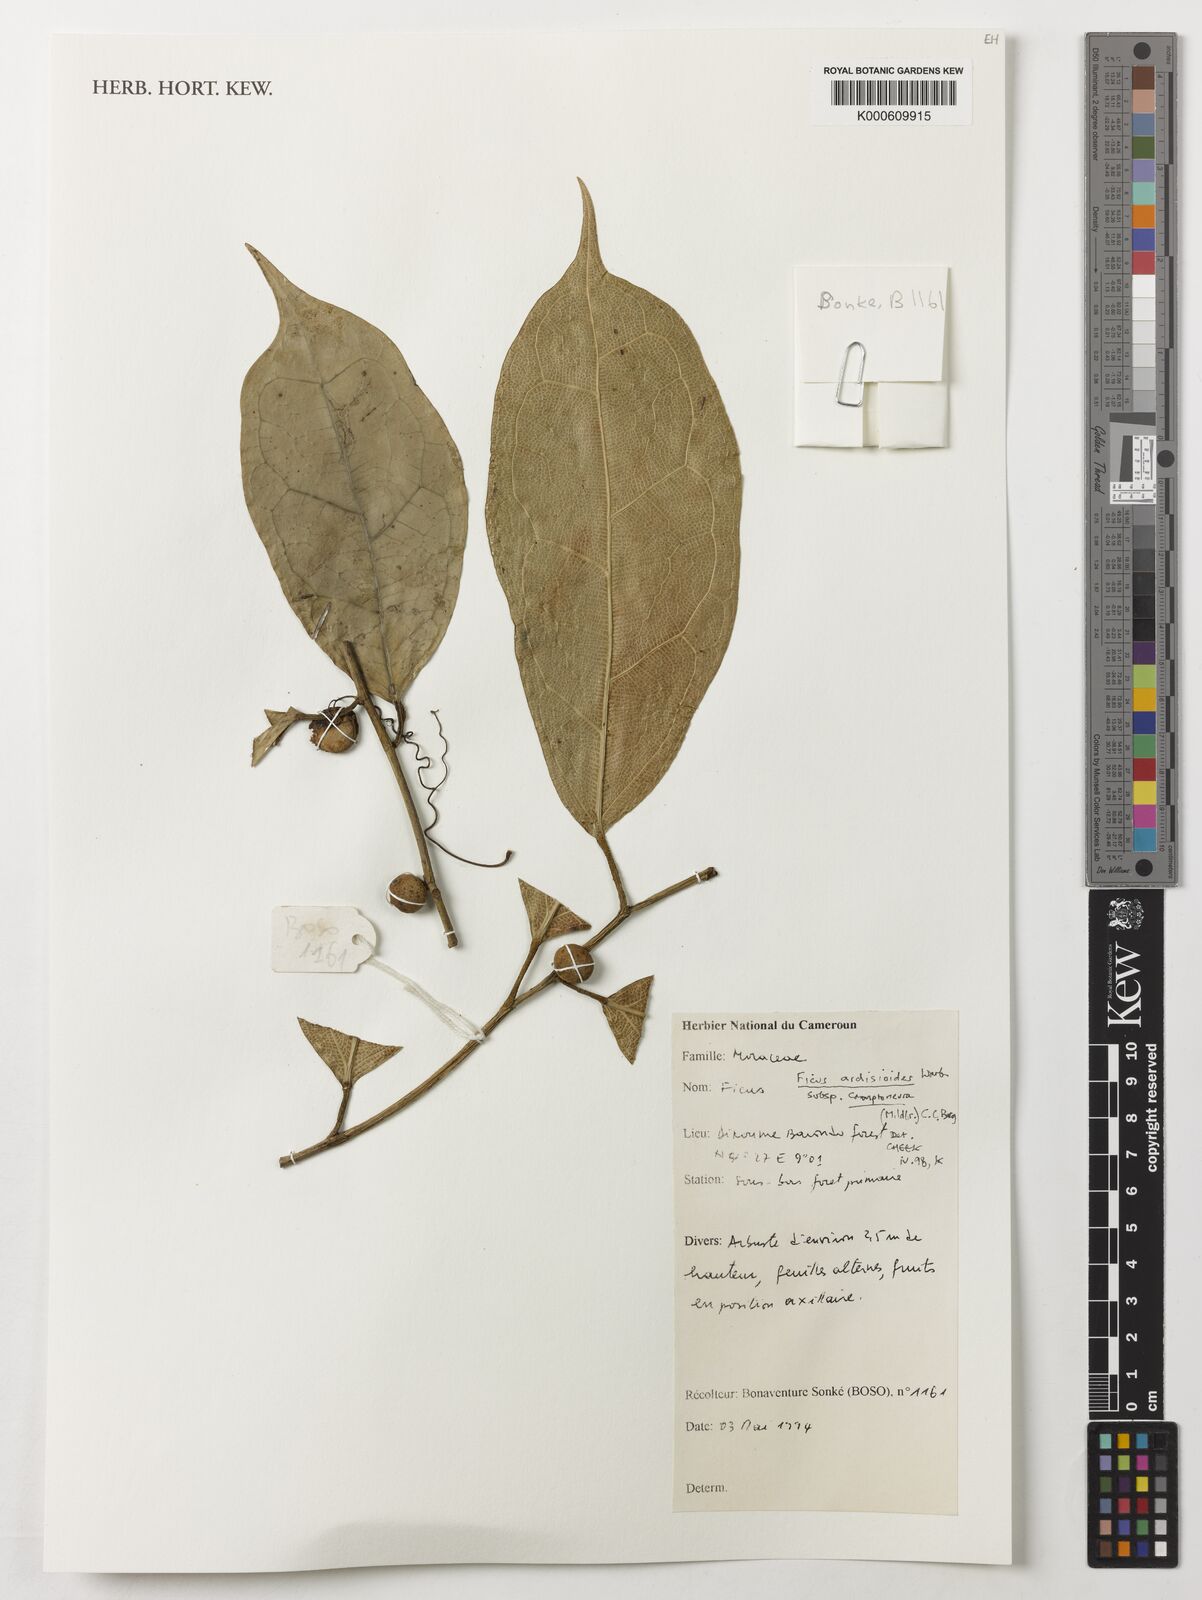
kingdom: Plantae
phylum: Tracheophyta
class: Magnoliopsida
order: Rosales
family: Moraceae
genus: Ficus
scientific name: Ficus ardisioides
